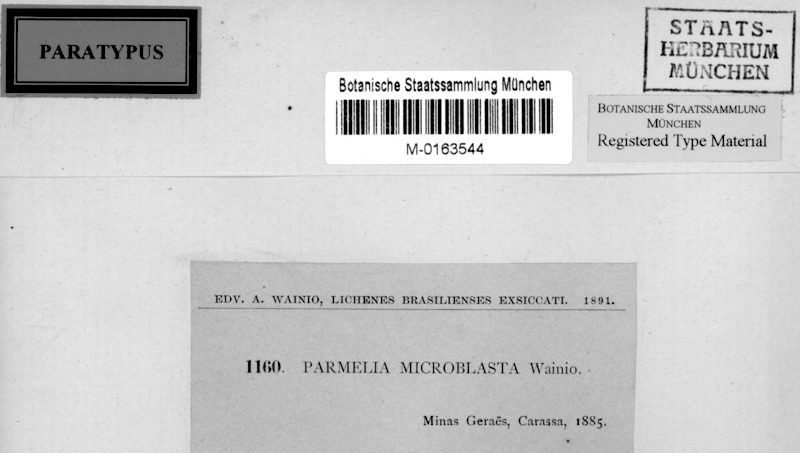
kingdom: Fungi
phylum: Ascomycota
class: Lecanoromycetes
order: Lecanorales
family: Parmeliaceae
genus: Hypotrachyna
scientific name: Hypotrachyna microblasta
